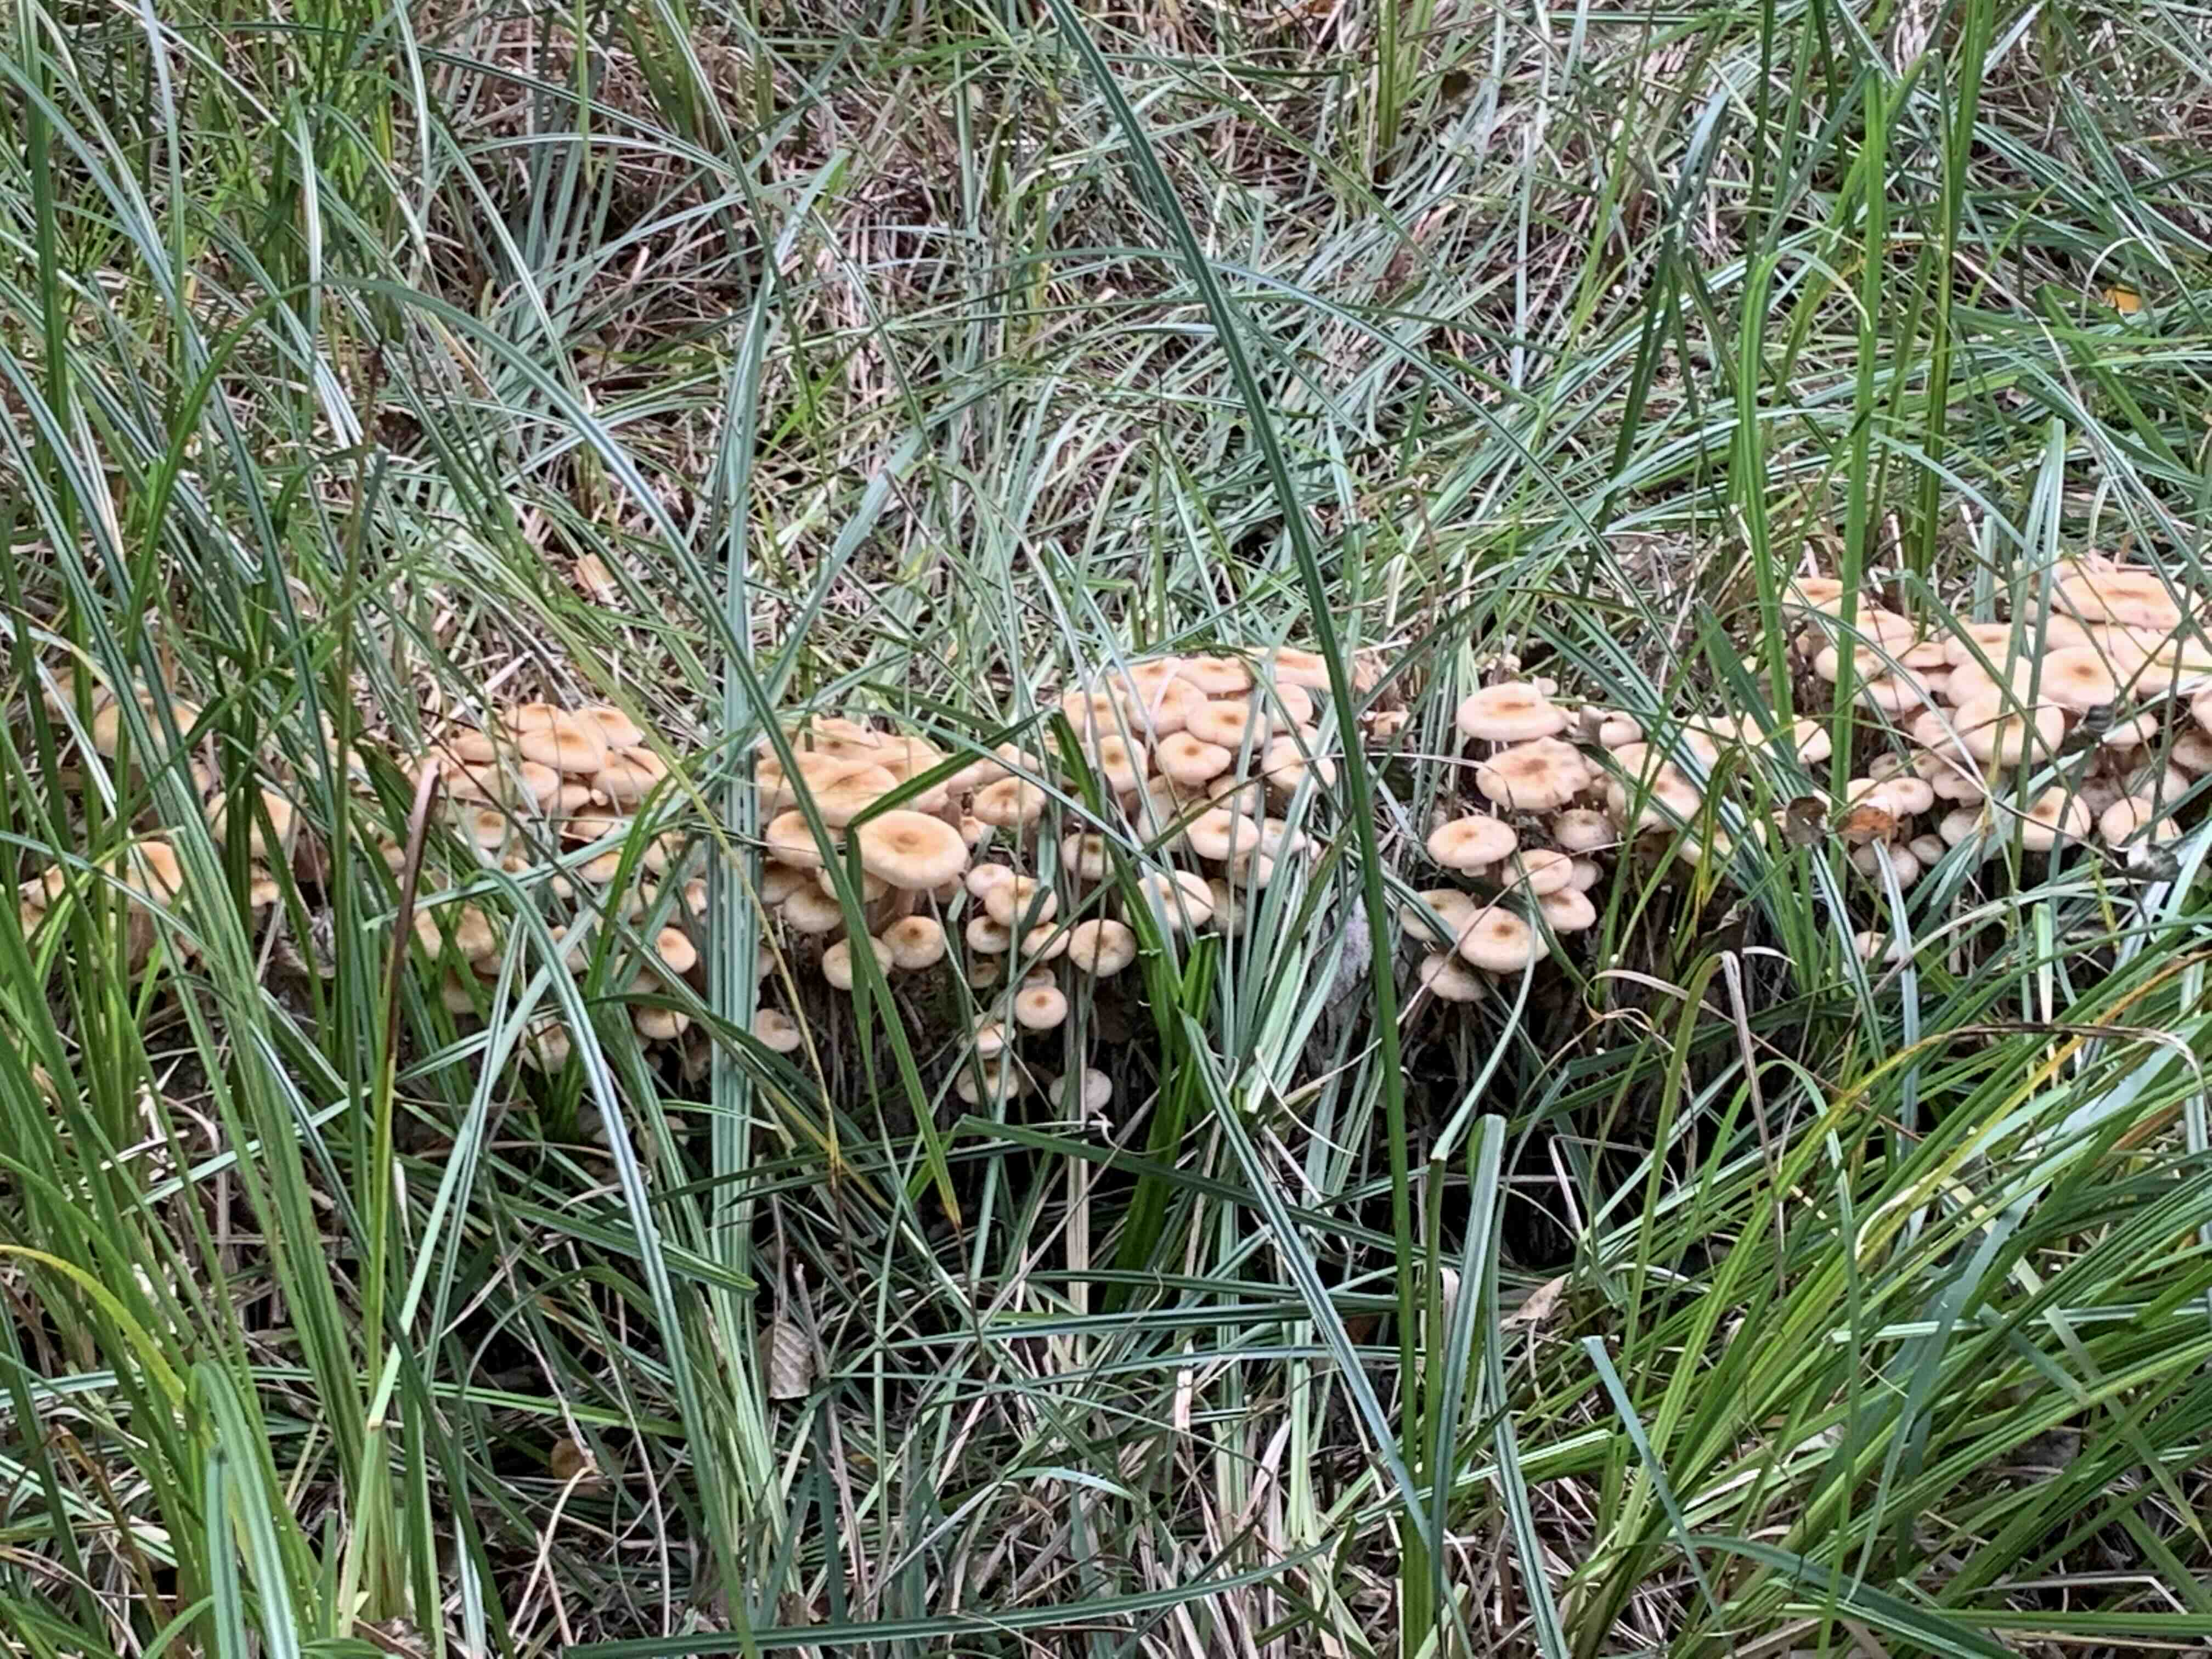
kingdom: Fungi
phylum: Basidiomycota
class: Agaricomycetes
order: Agaricales
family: Physalacriaceae
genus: Armillaria
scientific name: Armillaria
